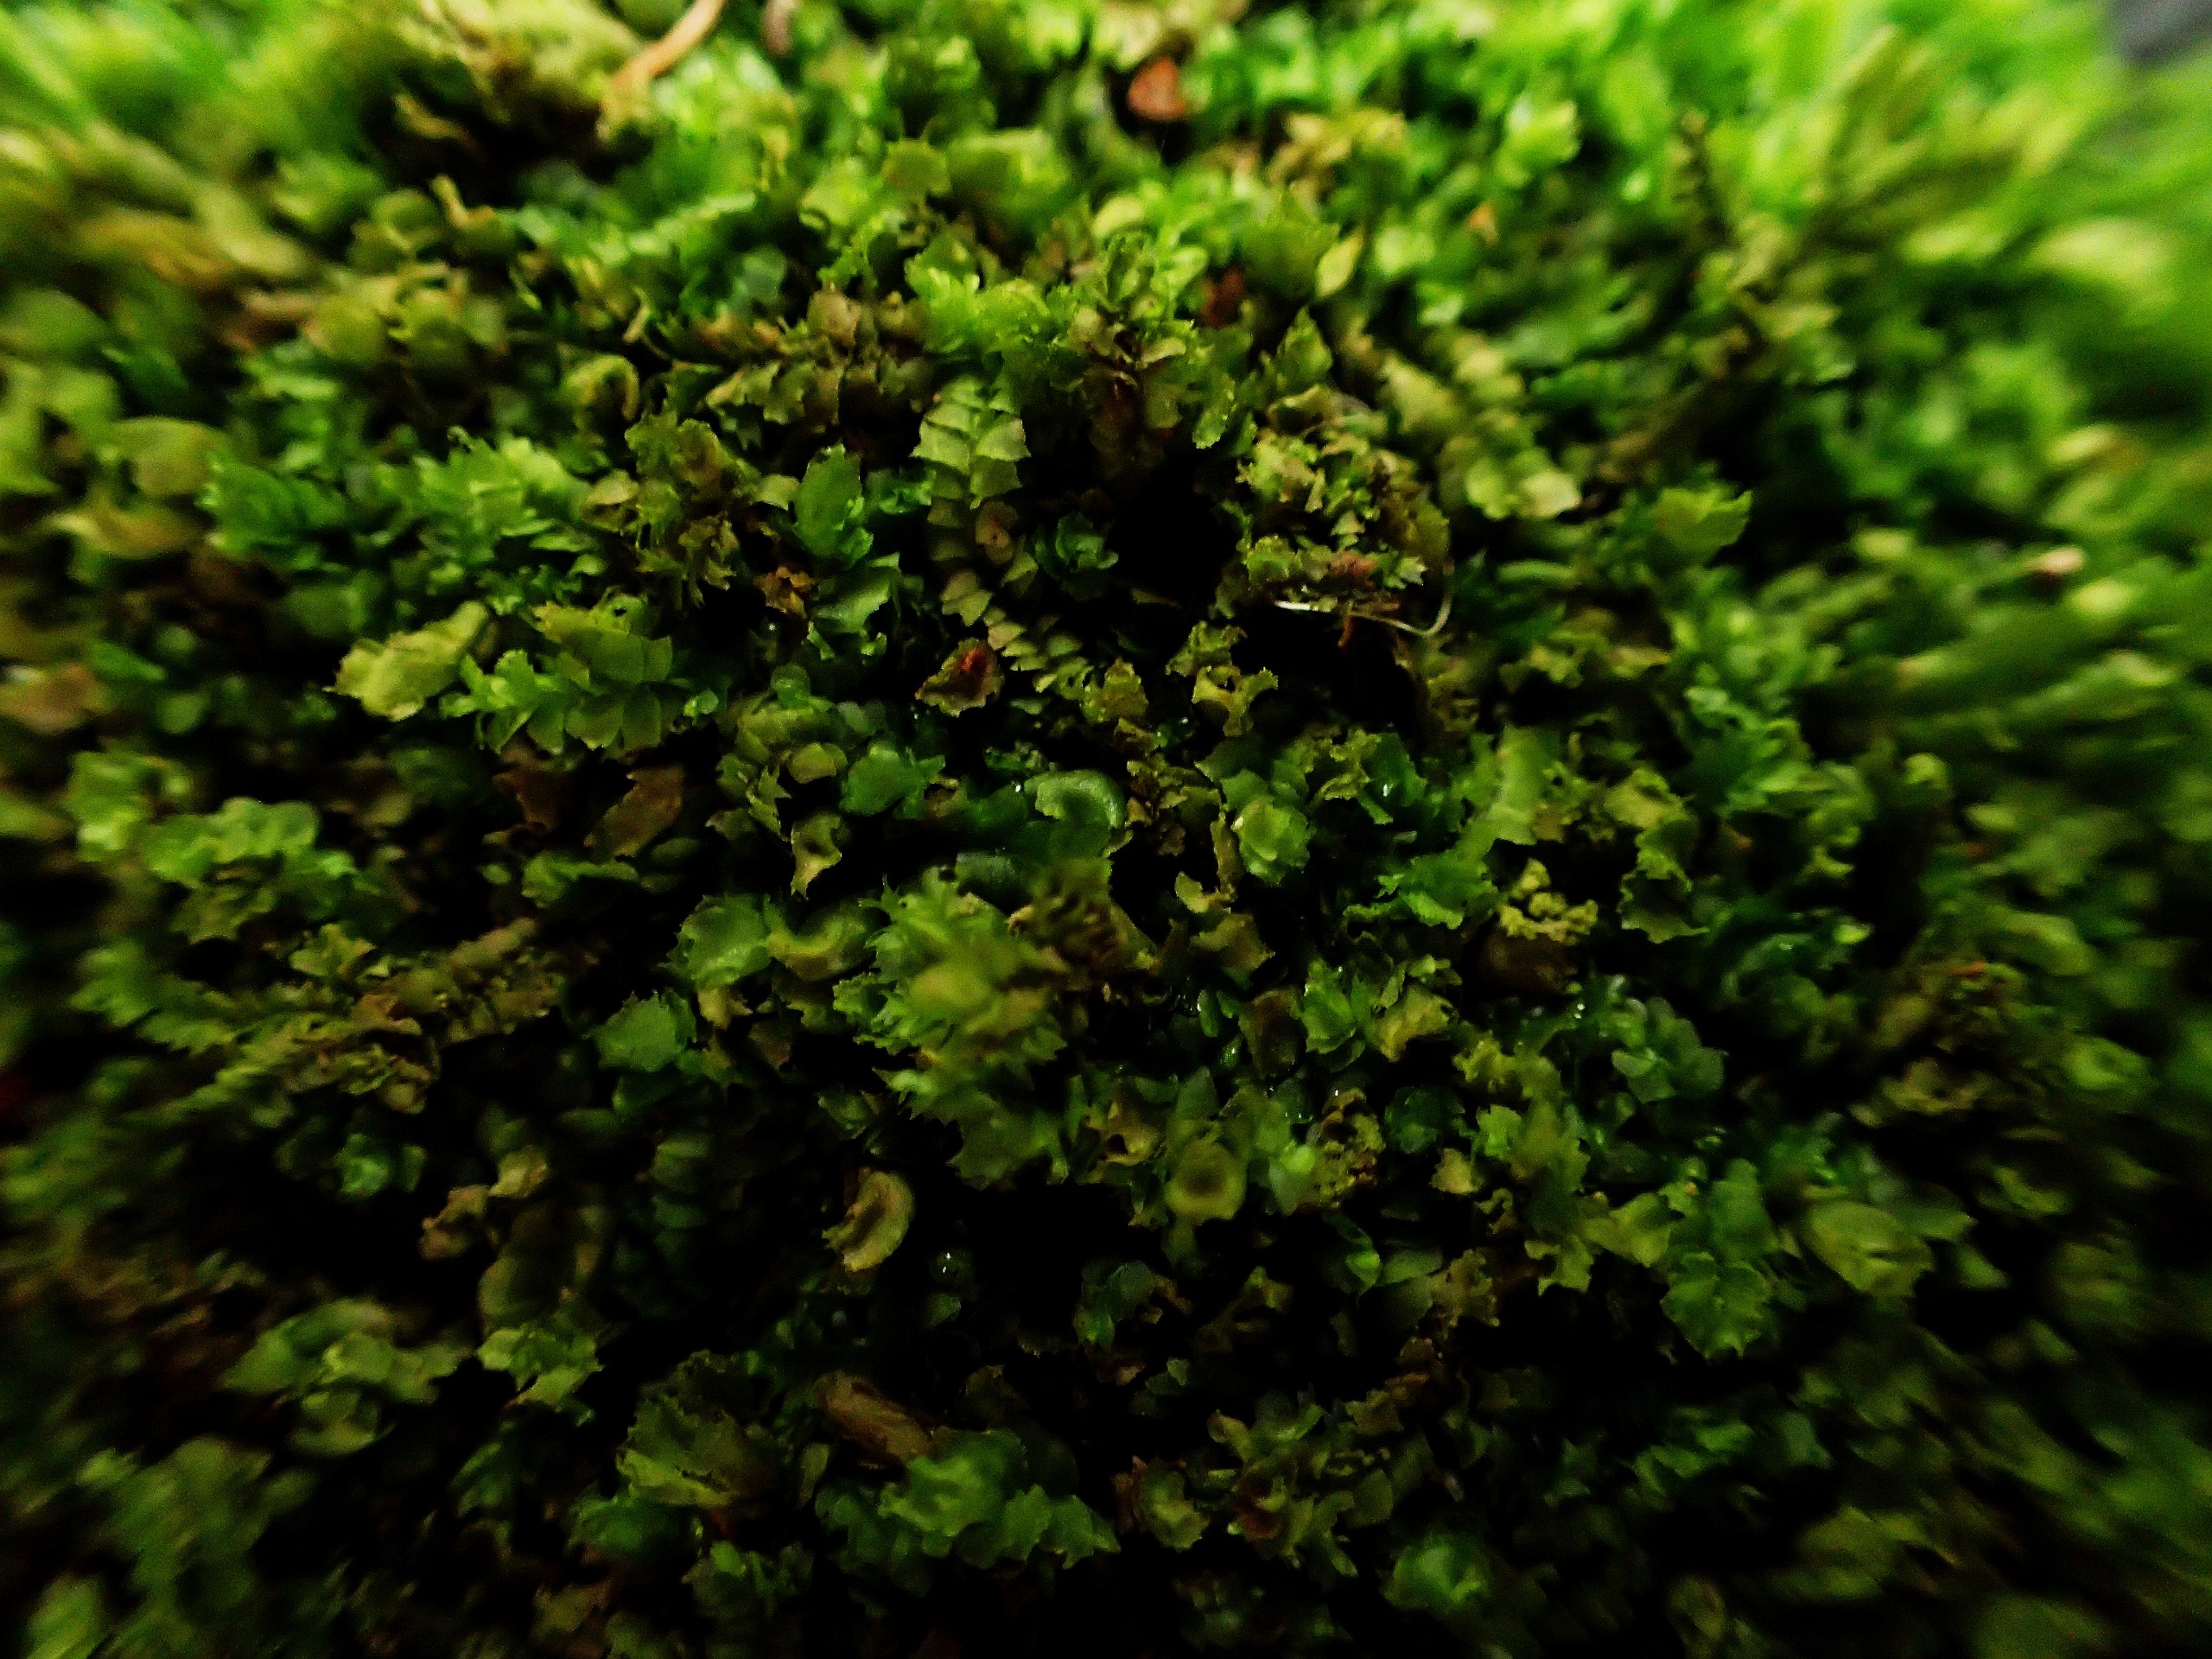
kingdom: Plantae
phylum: Marchantiophyta
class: Jungermanniopsida
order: Jungermanniales
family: Lophocoleaceae
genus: Lophocolea
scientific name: Lophocolea heterophylla
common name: Forskelligbladet kamsvøb
